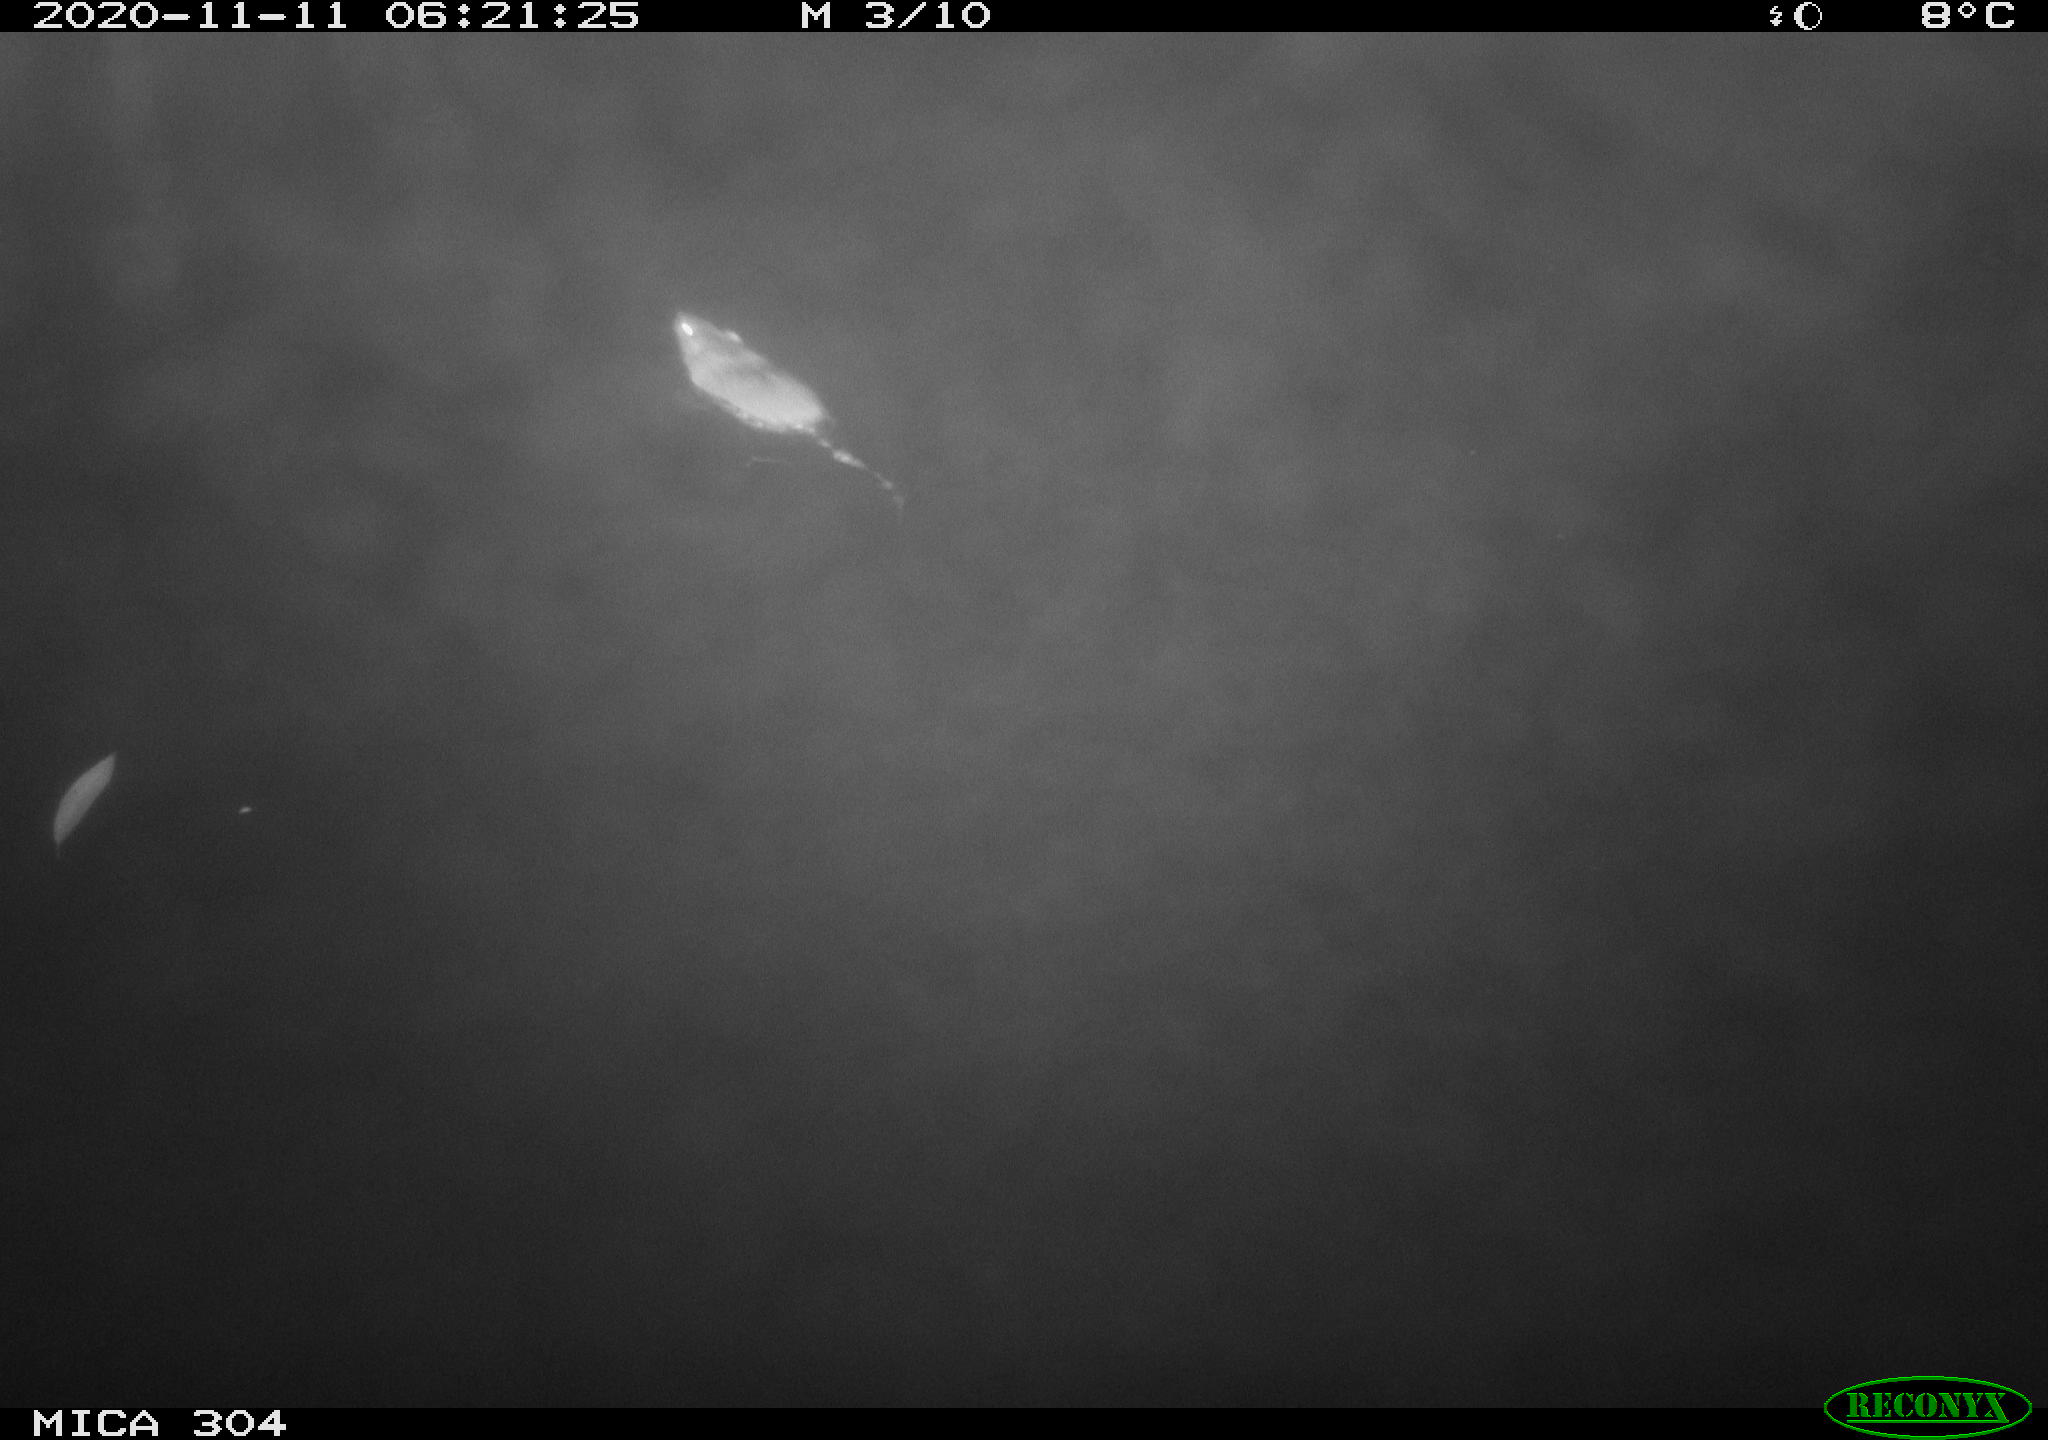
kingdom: Animalia
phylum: Chordata
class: Mammalia
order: Rodentia
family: Muridae
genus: Rattus
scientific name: Rattus norvegicus
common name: Brown rat
